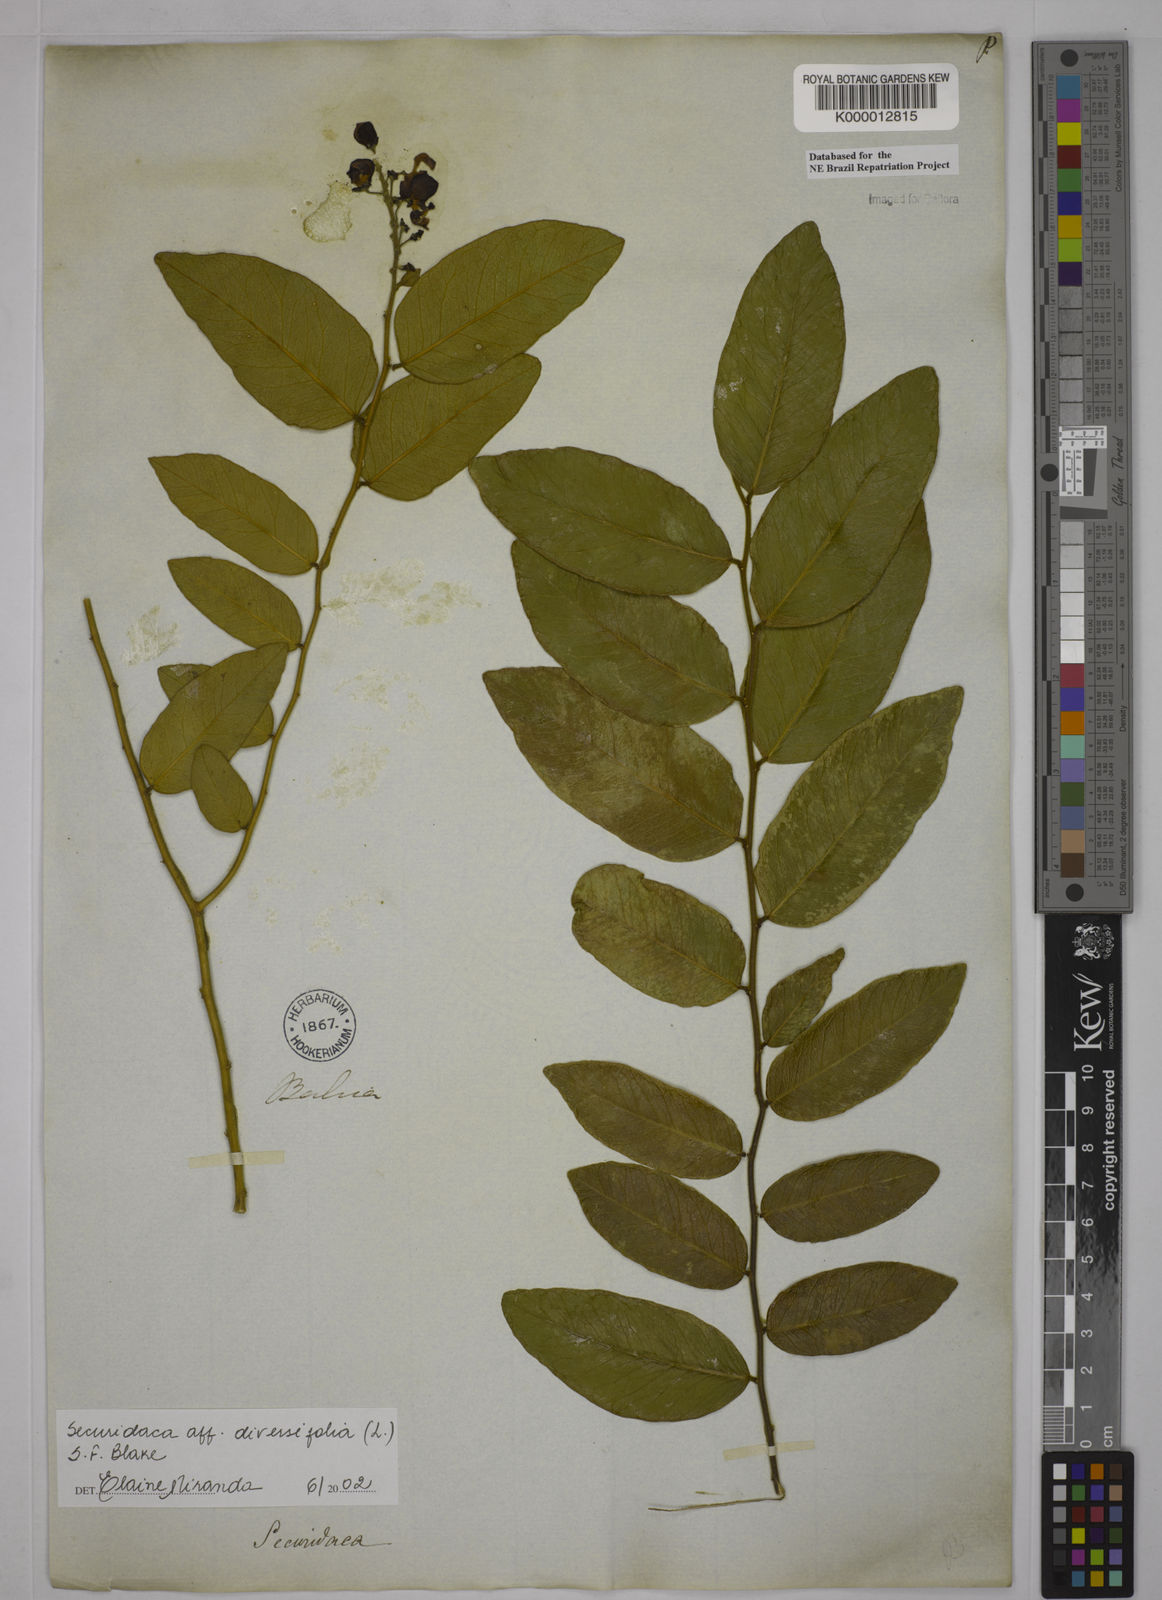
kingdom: Plantae
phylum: Tracheophyta
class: Magnoliopsida
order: Fabales
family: Polygalaceae
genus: Securidaca
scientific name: Securidaca diversifolia
